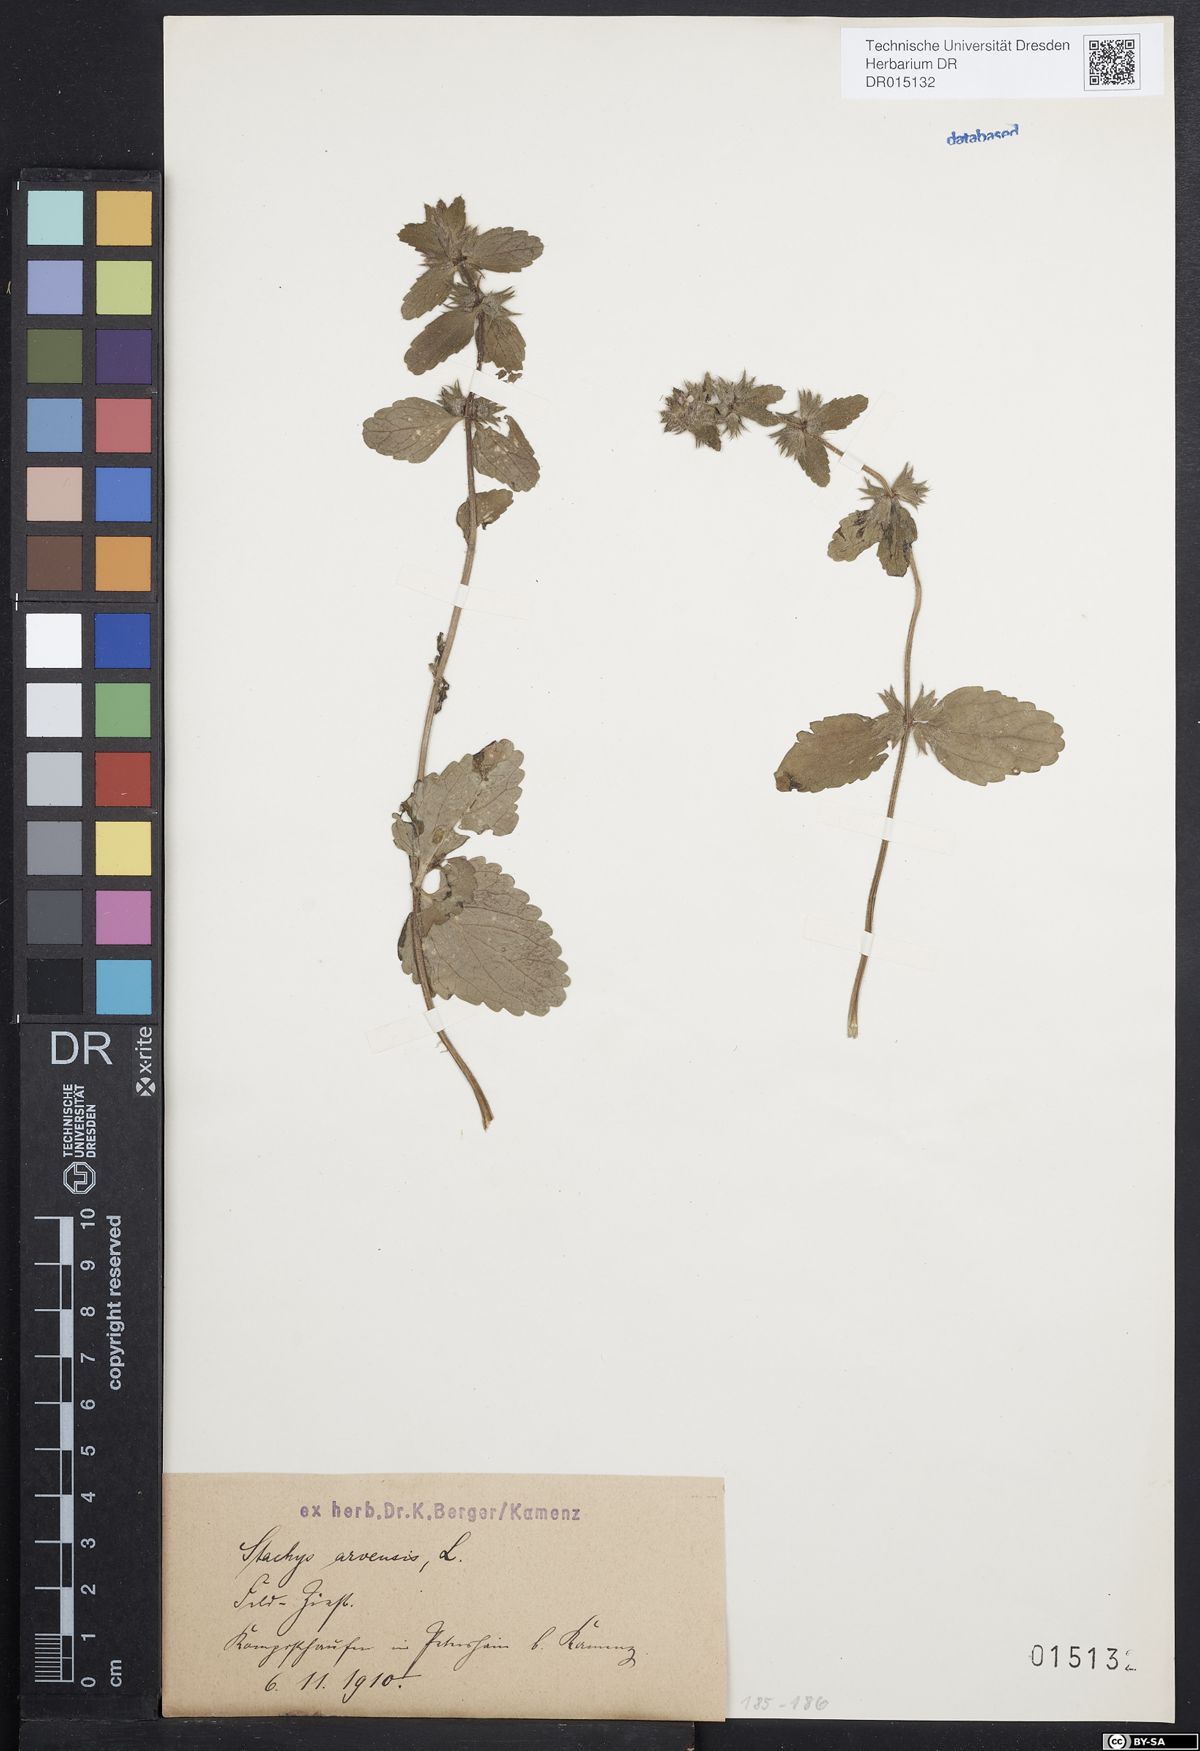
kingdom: Plantae
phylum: Tracheophyta
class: Magnoliopsida
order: Lamiales
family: Lamiaceae
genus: Stachys
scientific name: Stachys arvensis
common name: Field woundwort
